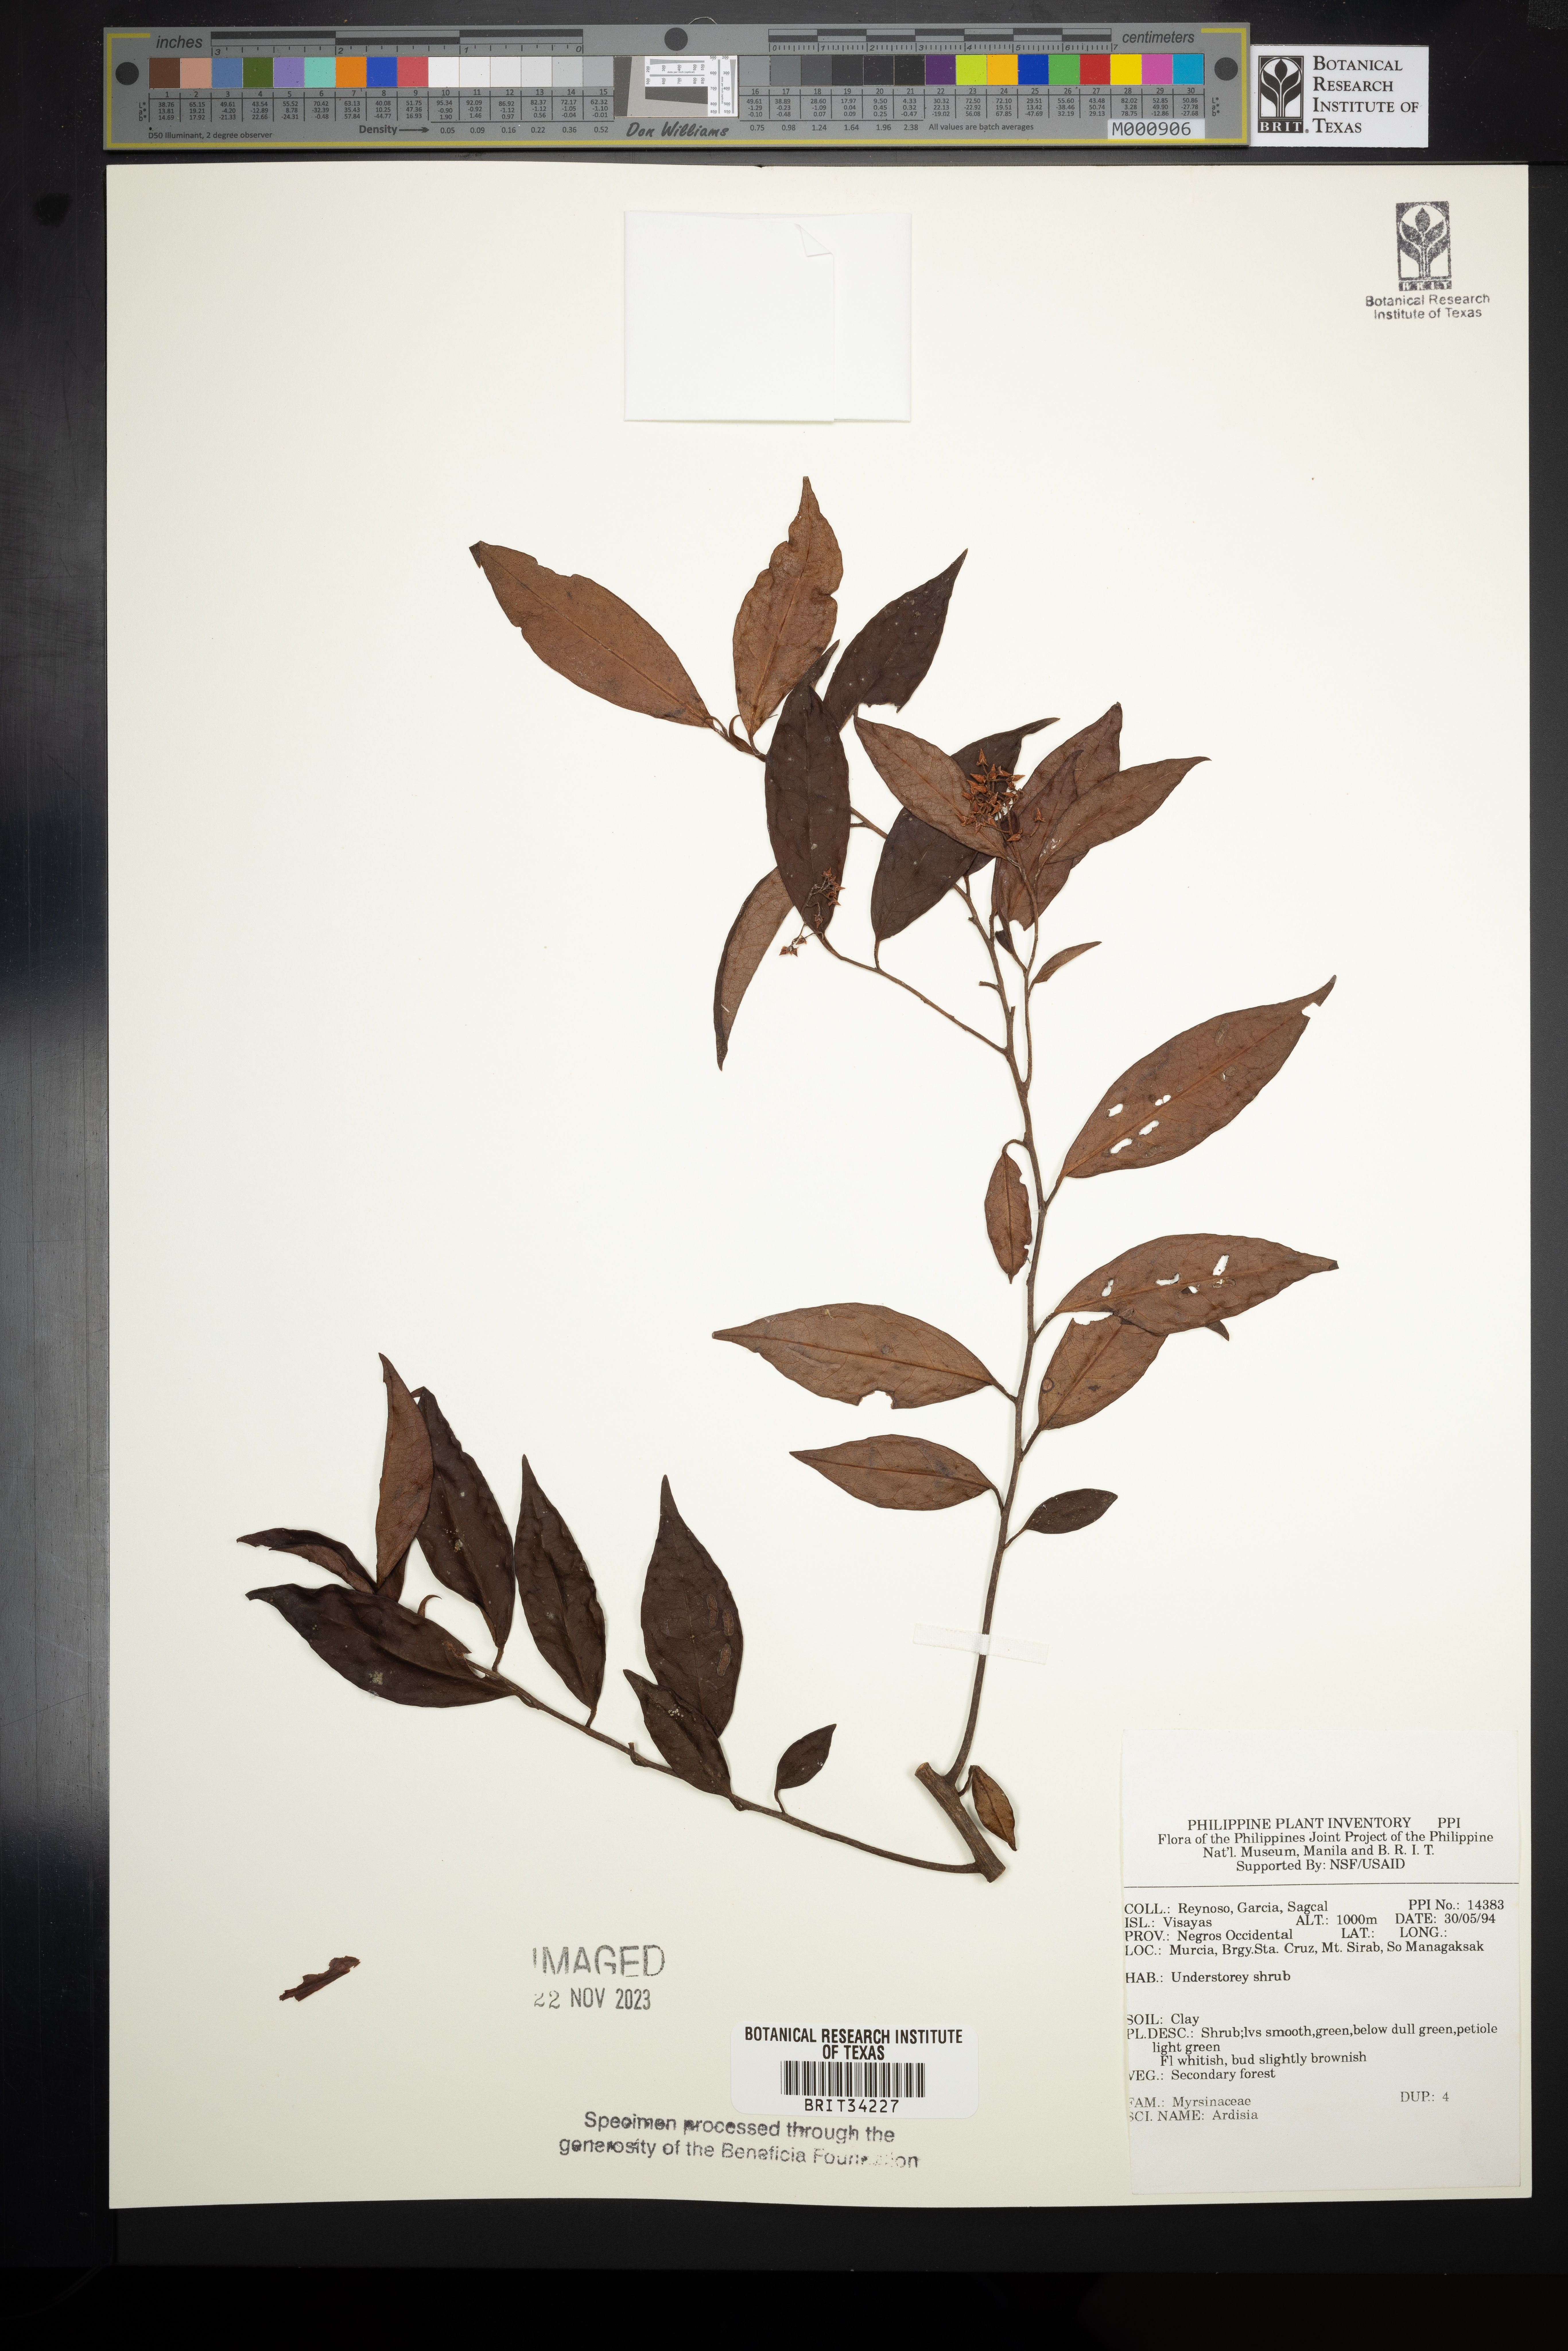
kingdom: Plantae
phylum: Tracheophyta
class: Magnoliopsida
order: Ericales
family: Primulaceae
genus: Ardisia
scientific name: Ardisia
